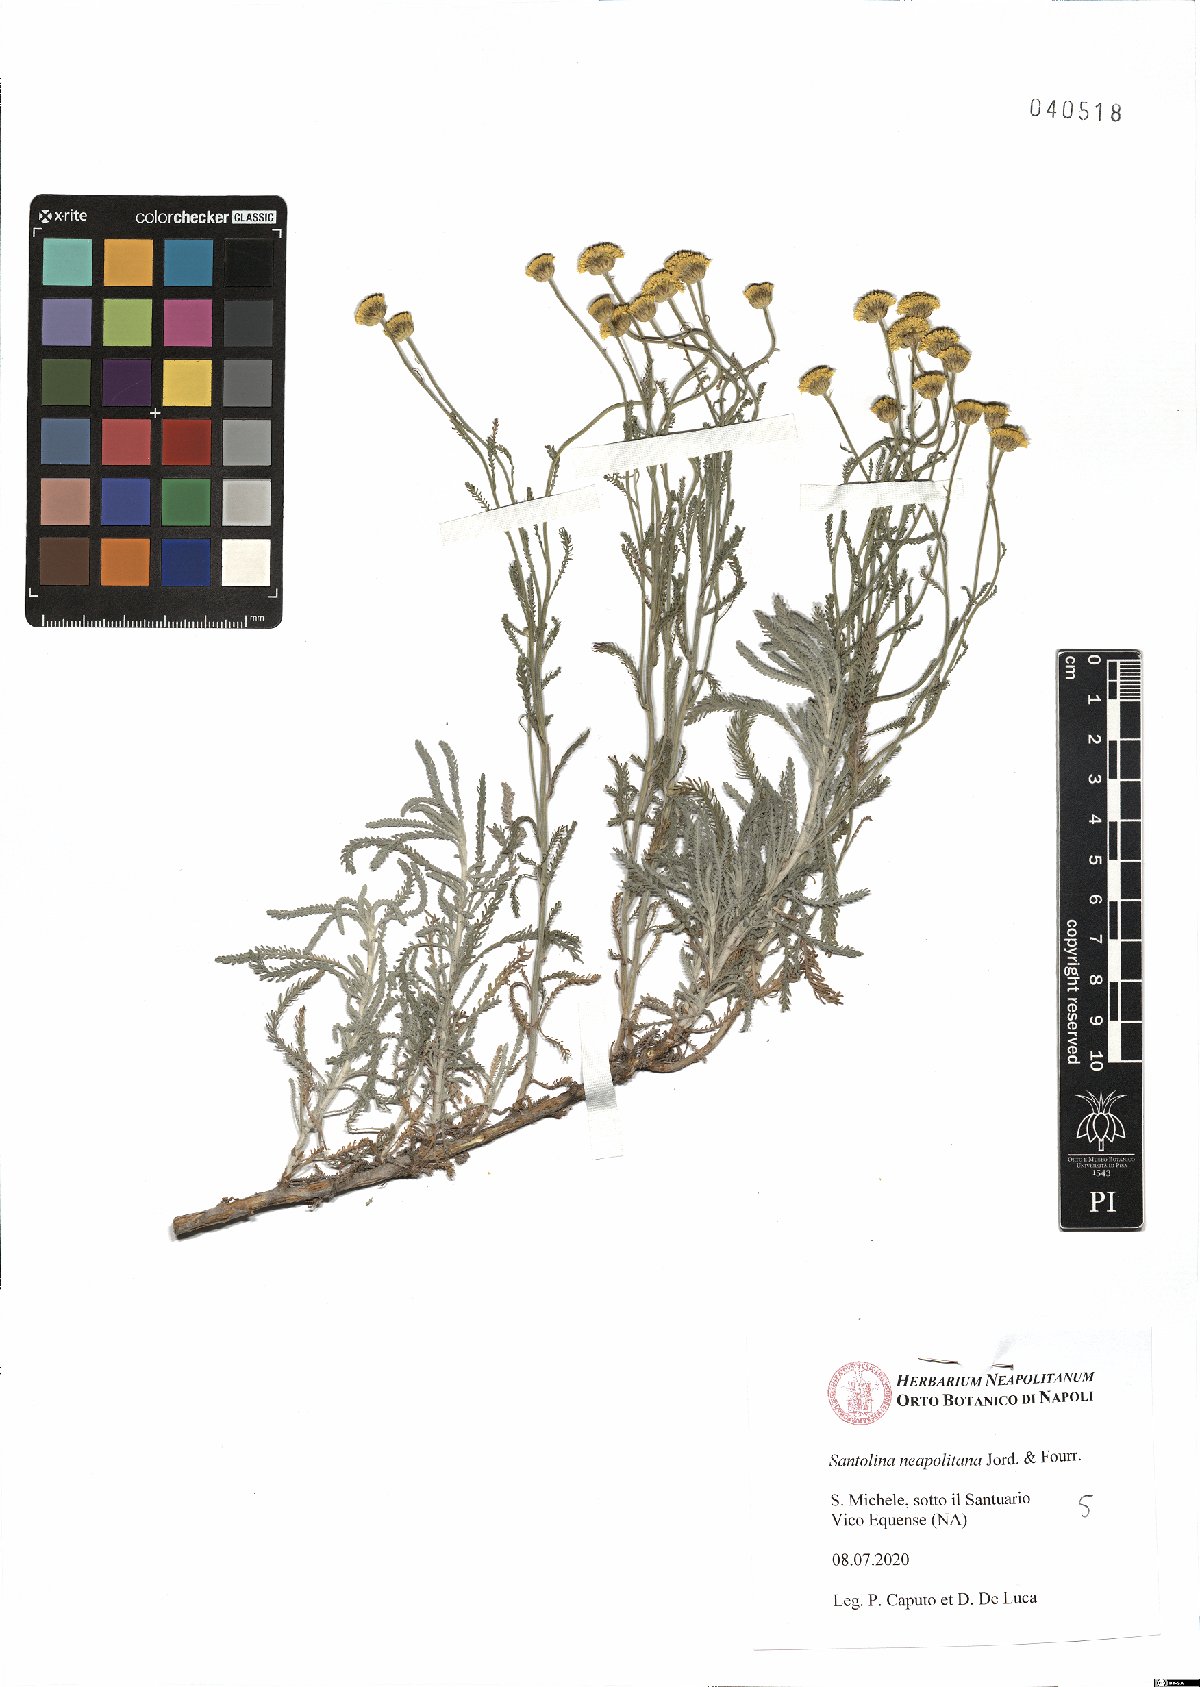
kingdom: Plantae
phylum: Tracheophyta
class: Magnoliopsida
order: Asterales
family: Asteraceae
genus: Santolina
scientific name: Santolina neapolitana
